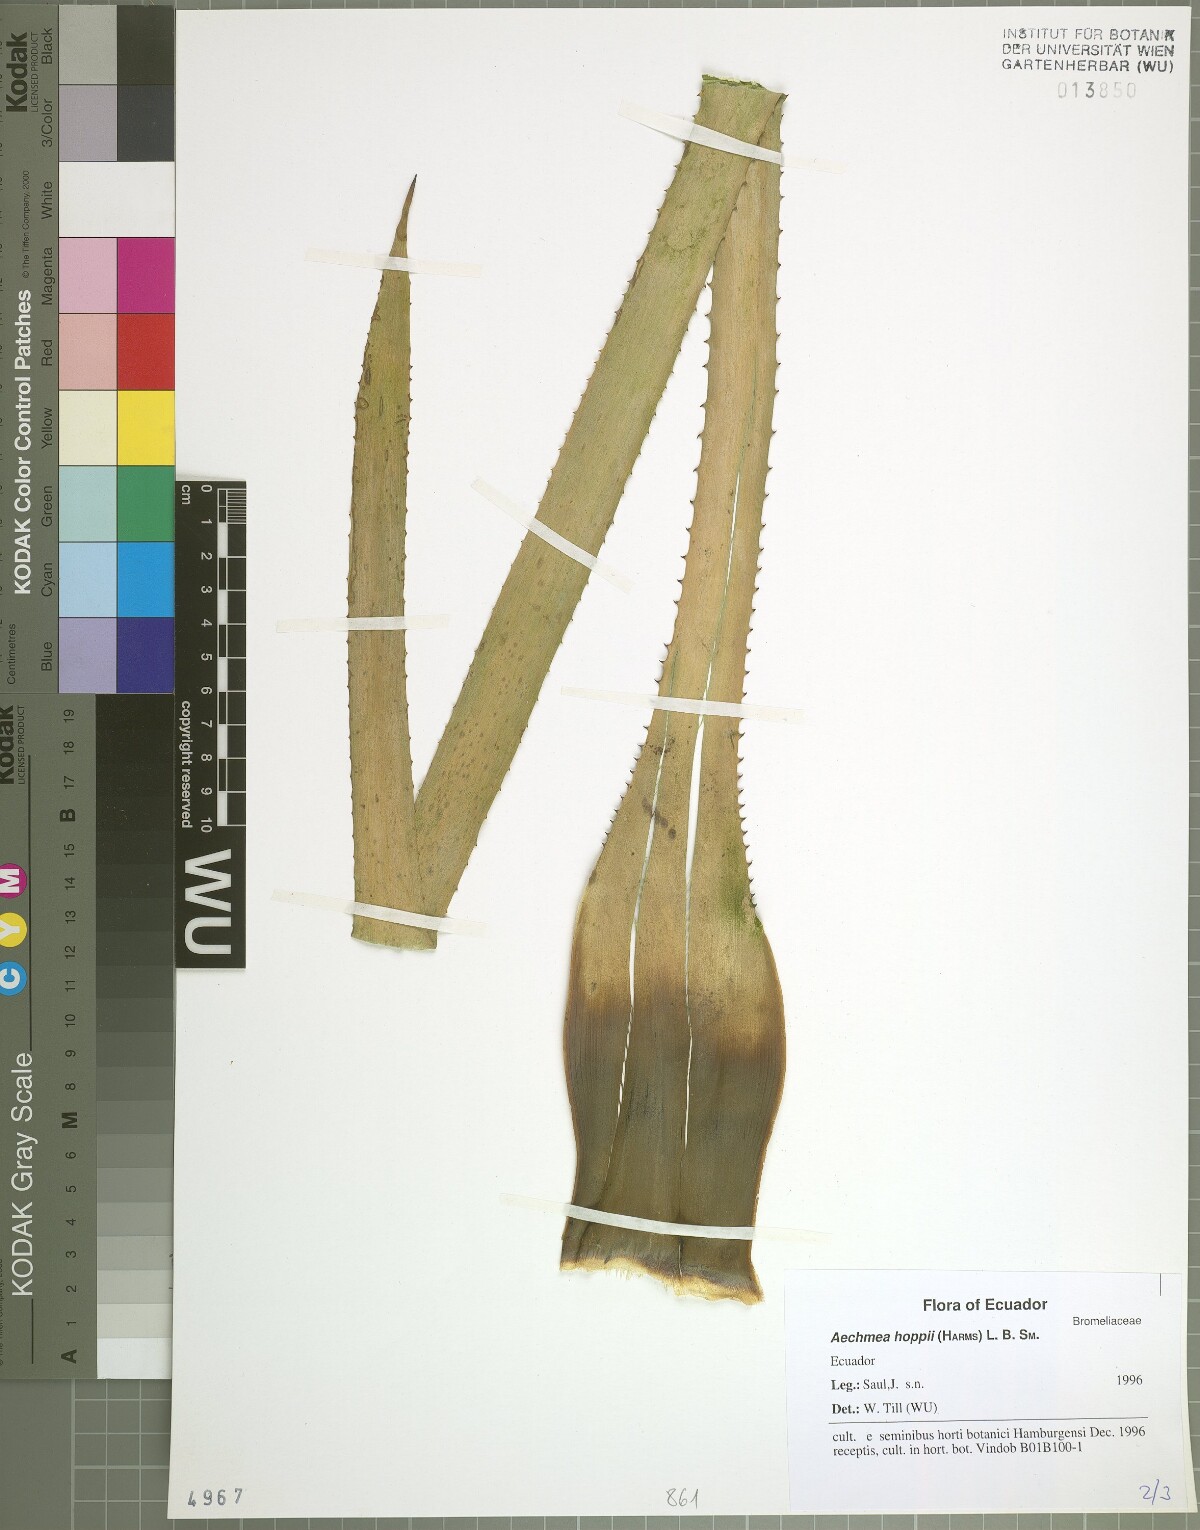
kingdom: Plantae
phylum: Tracheophyta
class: Liliopsida
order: Poales
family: Bromeliaceae
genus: Aechmea
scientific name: Aechmea hoppii
